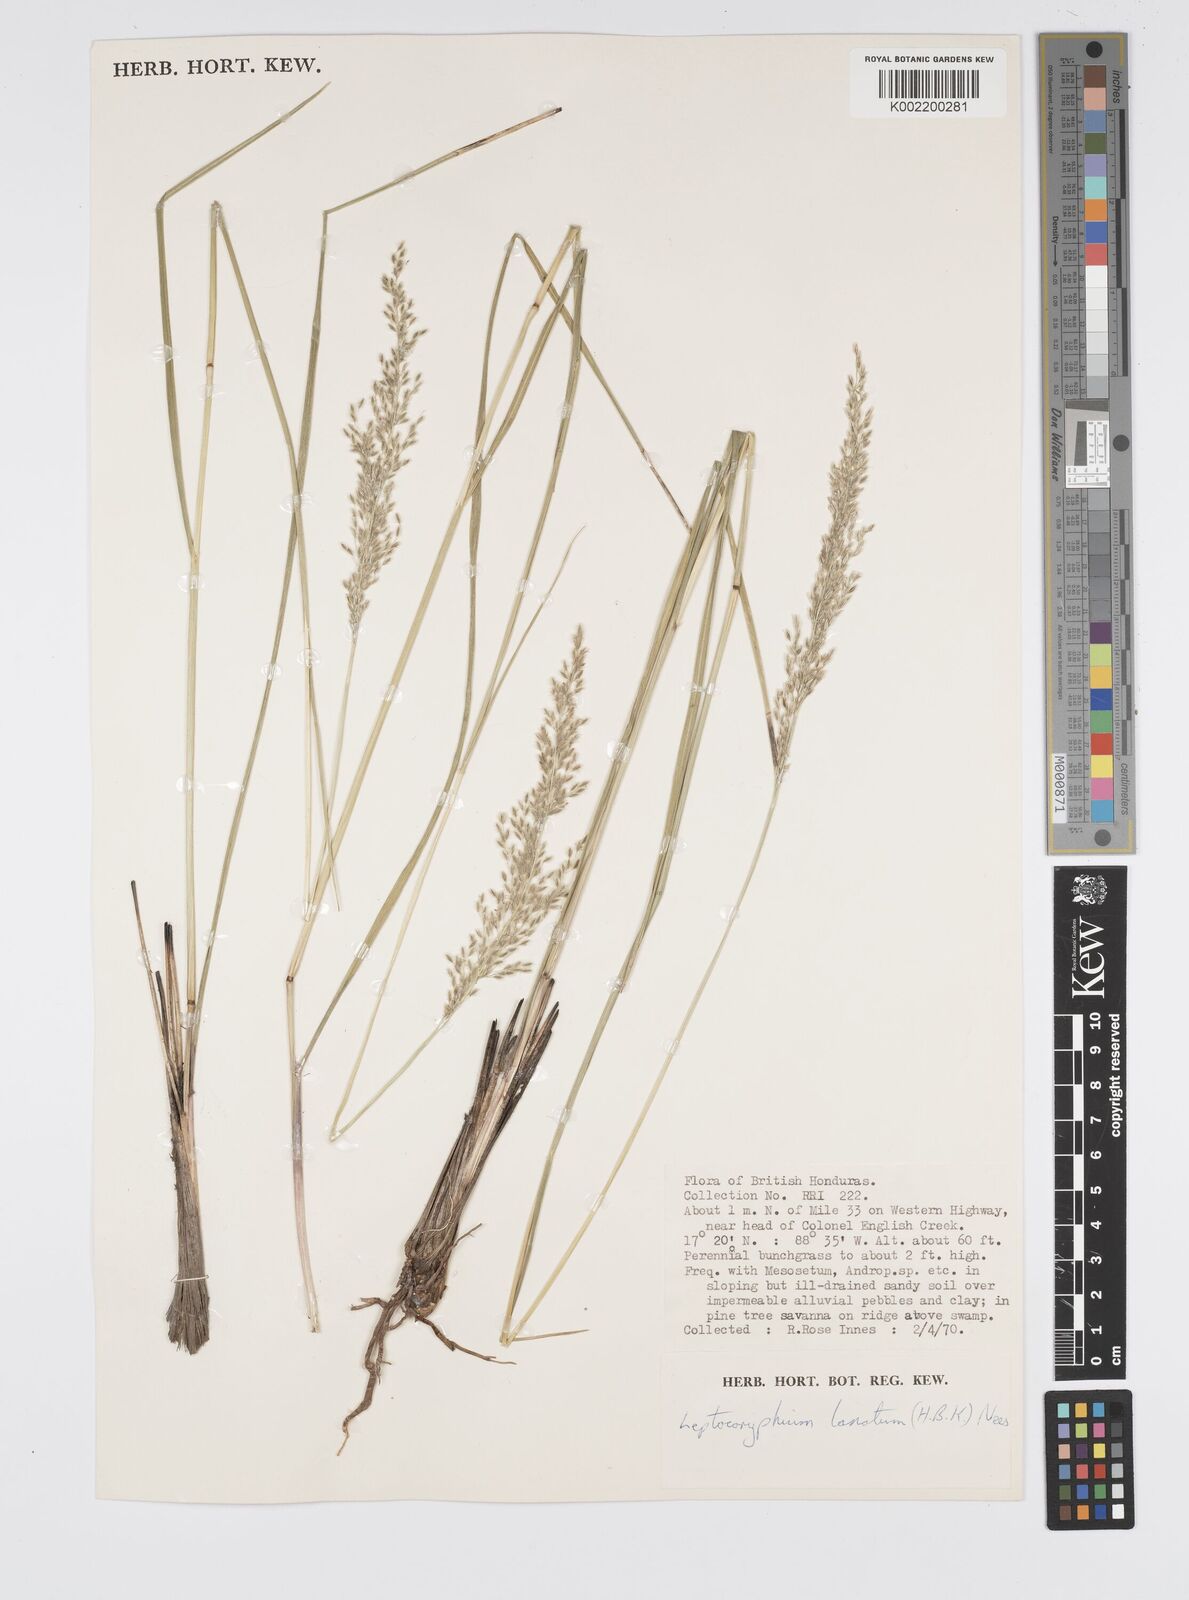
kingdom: Plantae
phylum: Tracheophyta
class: Liliopsida
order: Poales
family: Poaceae
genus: Anthenantia
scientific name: Anthenantia lanata
